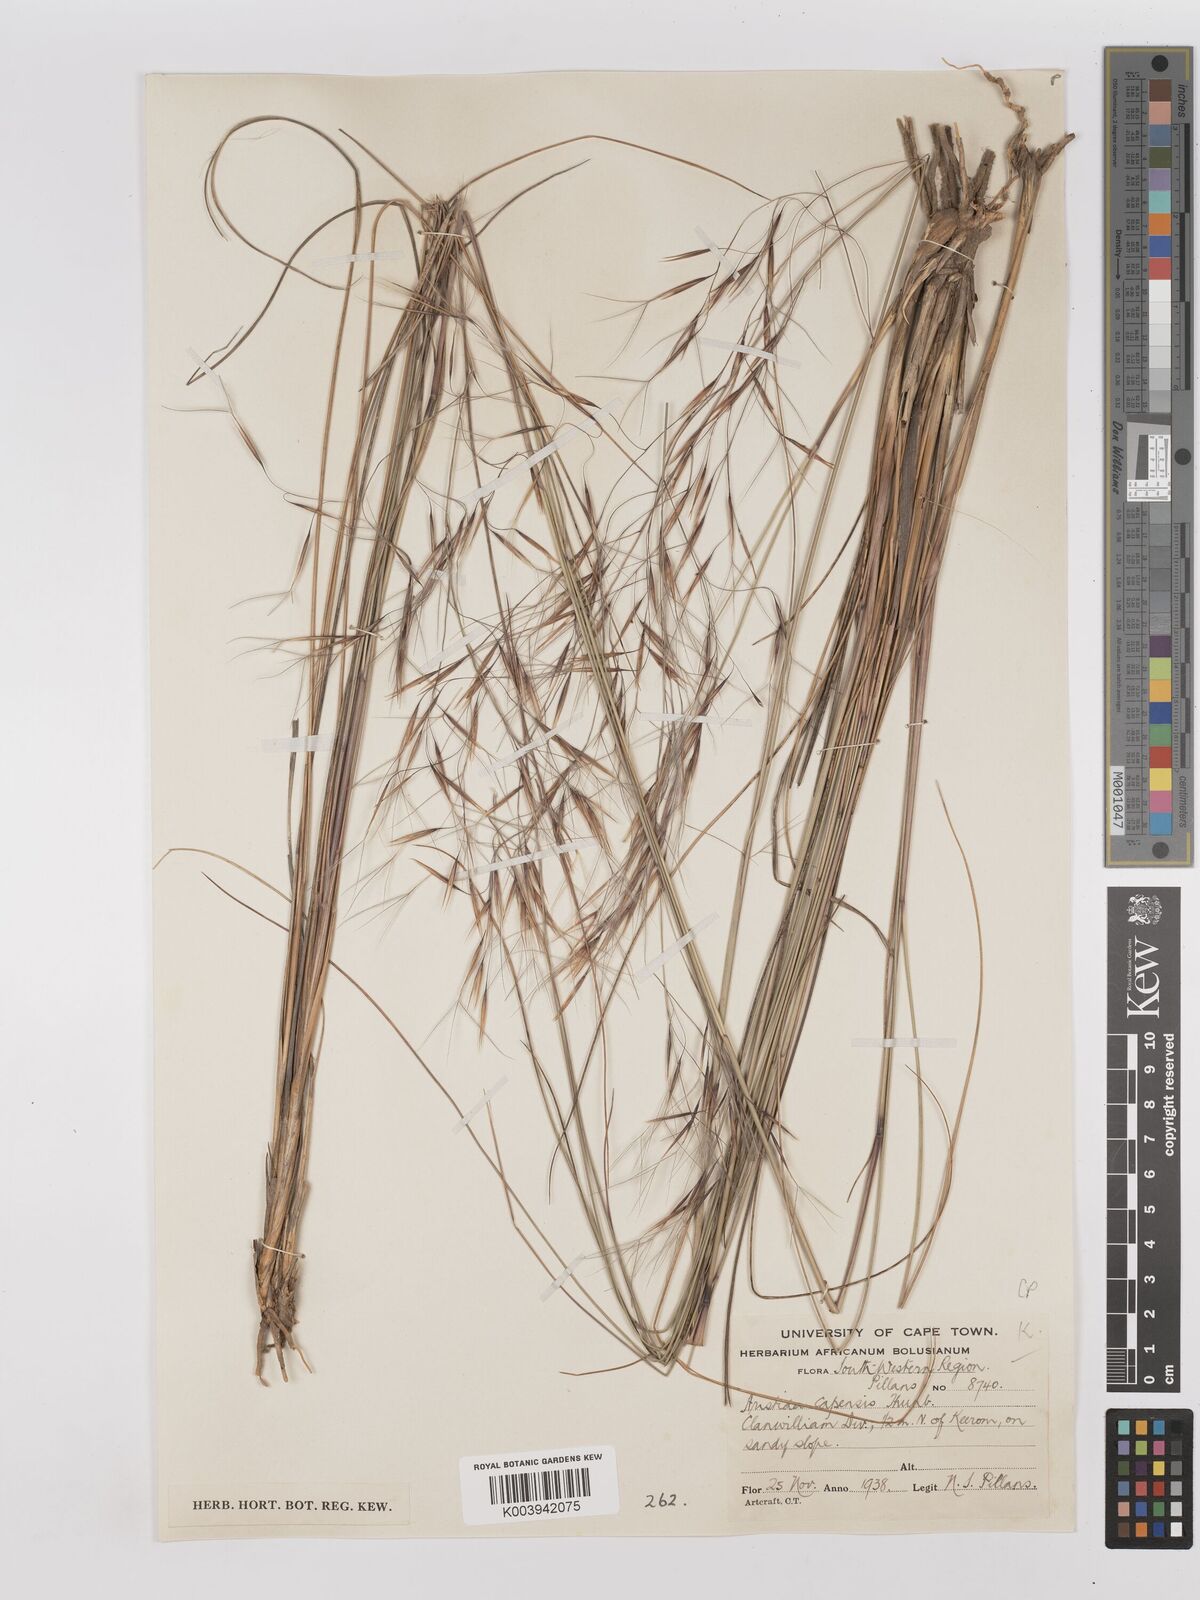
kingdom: Plantae
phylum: Tracheophyta
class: Liliopsida
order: Poales
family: Poaceae
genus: Stipagrostis
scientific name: Stipagrostis zeyheri
